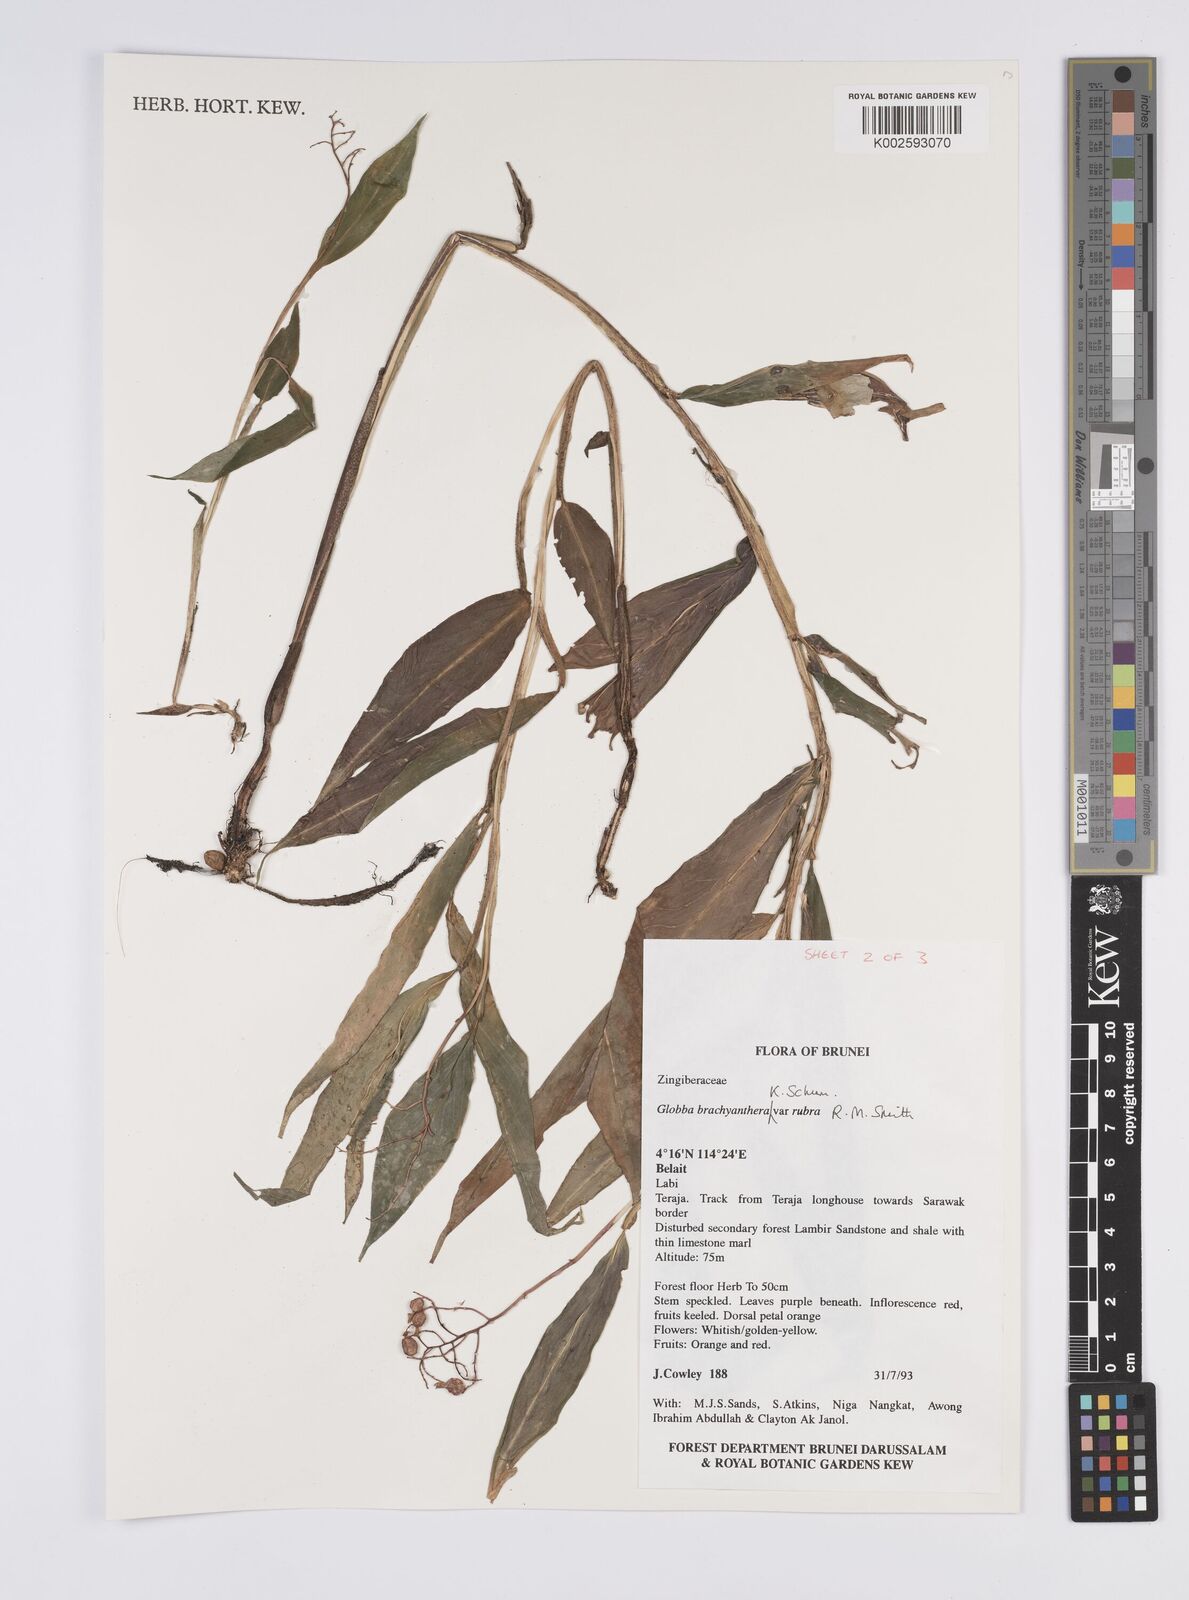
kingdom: Plantae
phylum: Tracheophyta
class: Liliopsida
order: Zingiberales
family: Zingiberaceae
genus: Globba
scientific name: Globba brachyanthera
